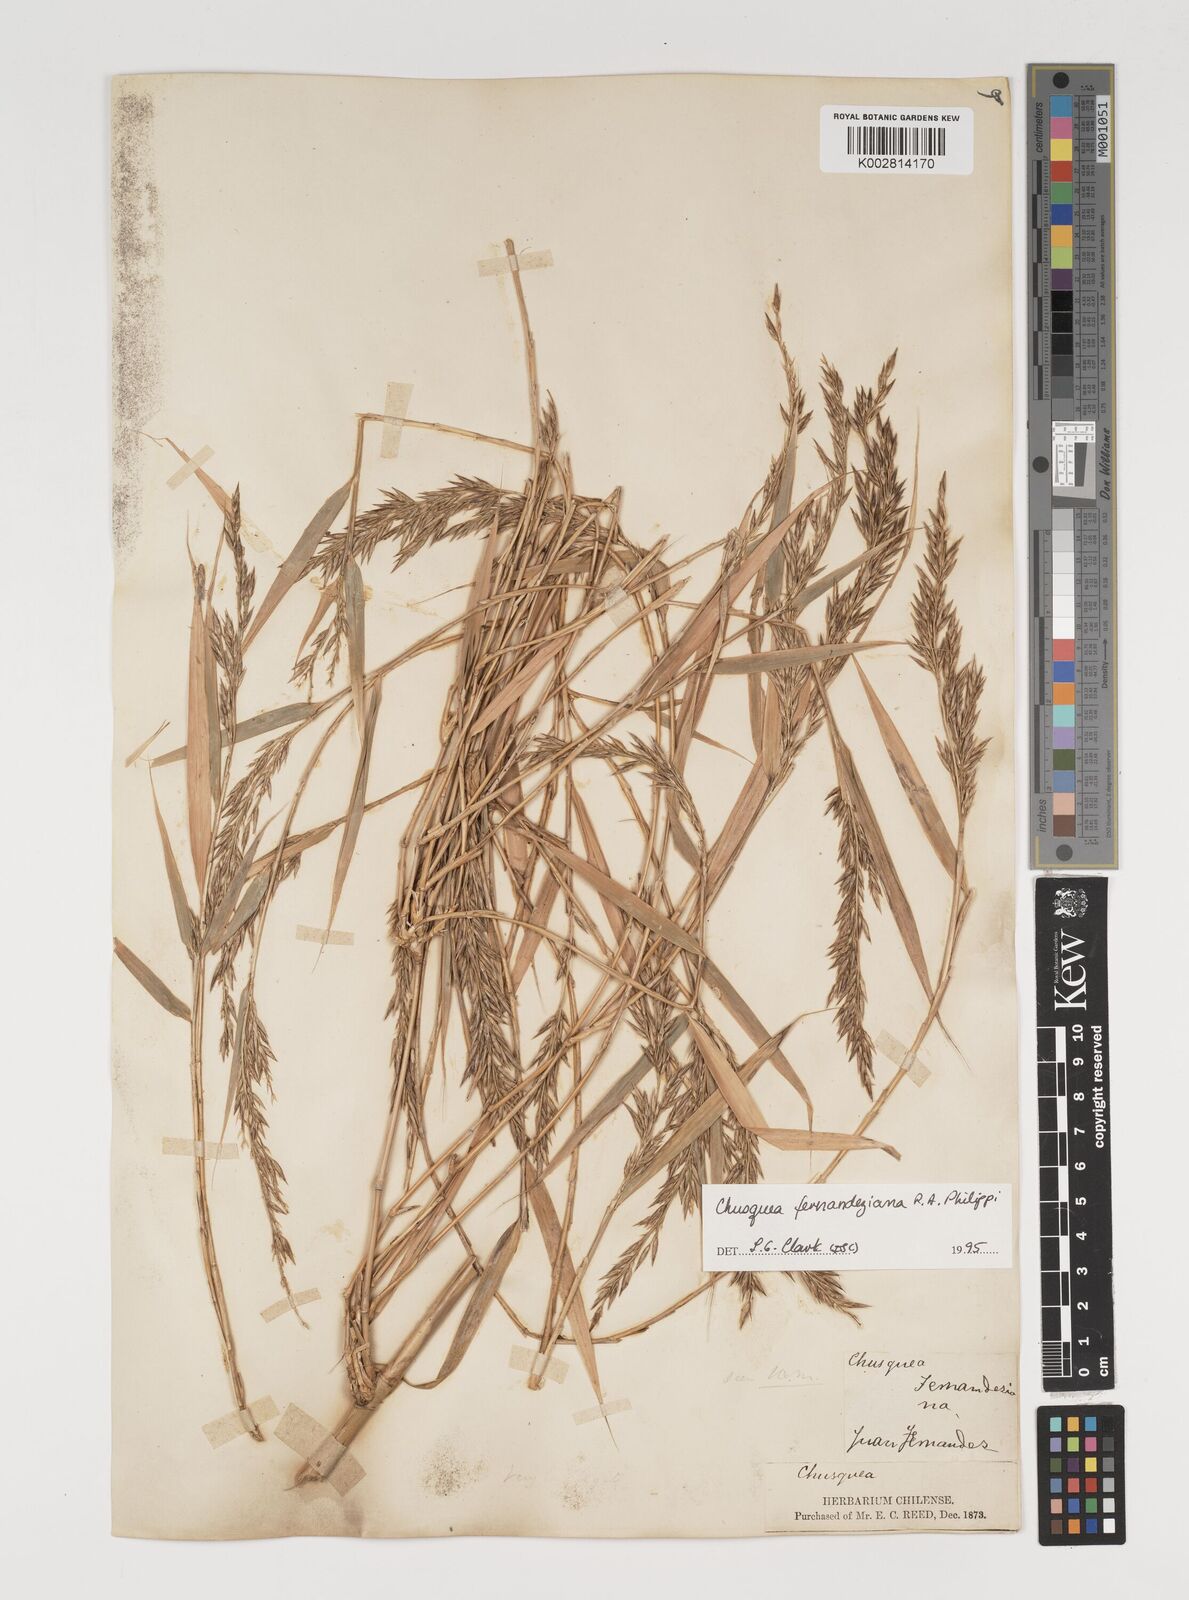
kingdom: Plantae
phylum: Tracheophyta
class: Liliopsida
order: Poales
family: Poaceae
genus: Chusquea
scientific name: Chusquea ligulata
